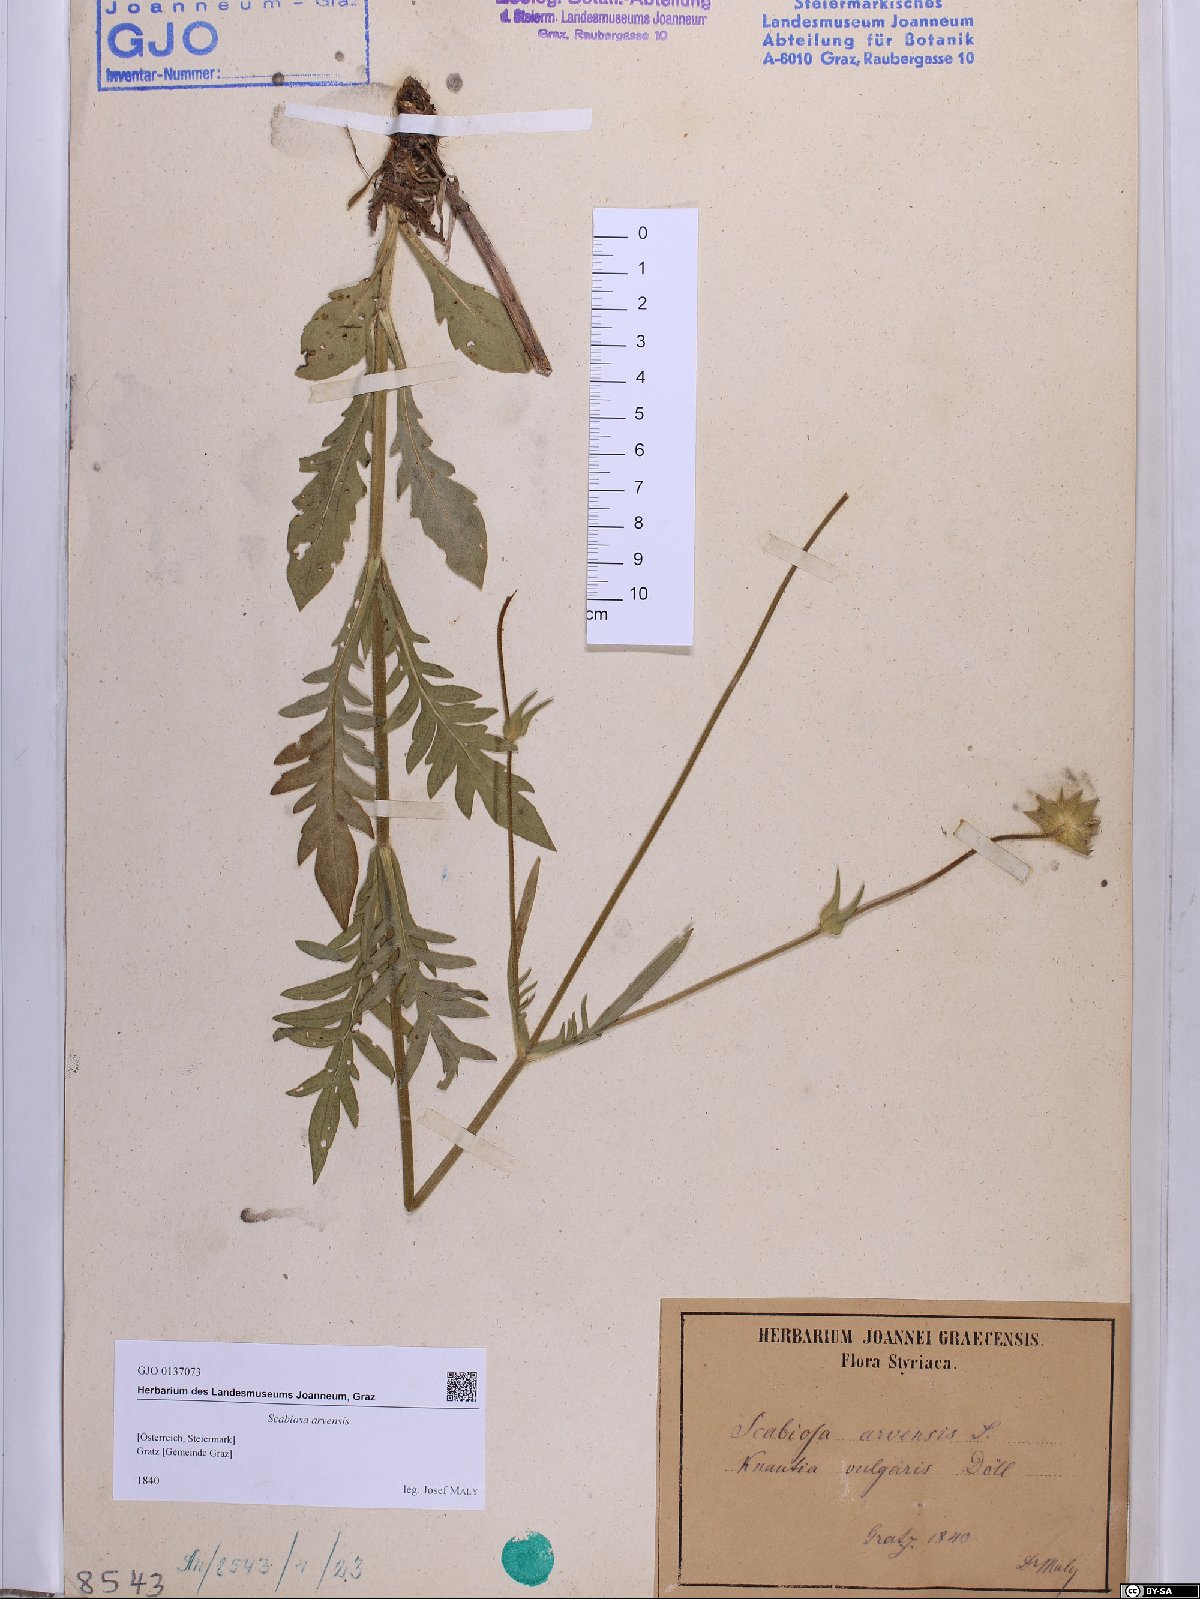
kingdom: Plantae
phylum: Tracheophyta
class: Magnoliopsida
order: Dipsacales
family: Caprifoliaceae
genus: Knautia
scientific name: Knautia arvensis
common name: Field scabiosa
